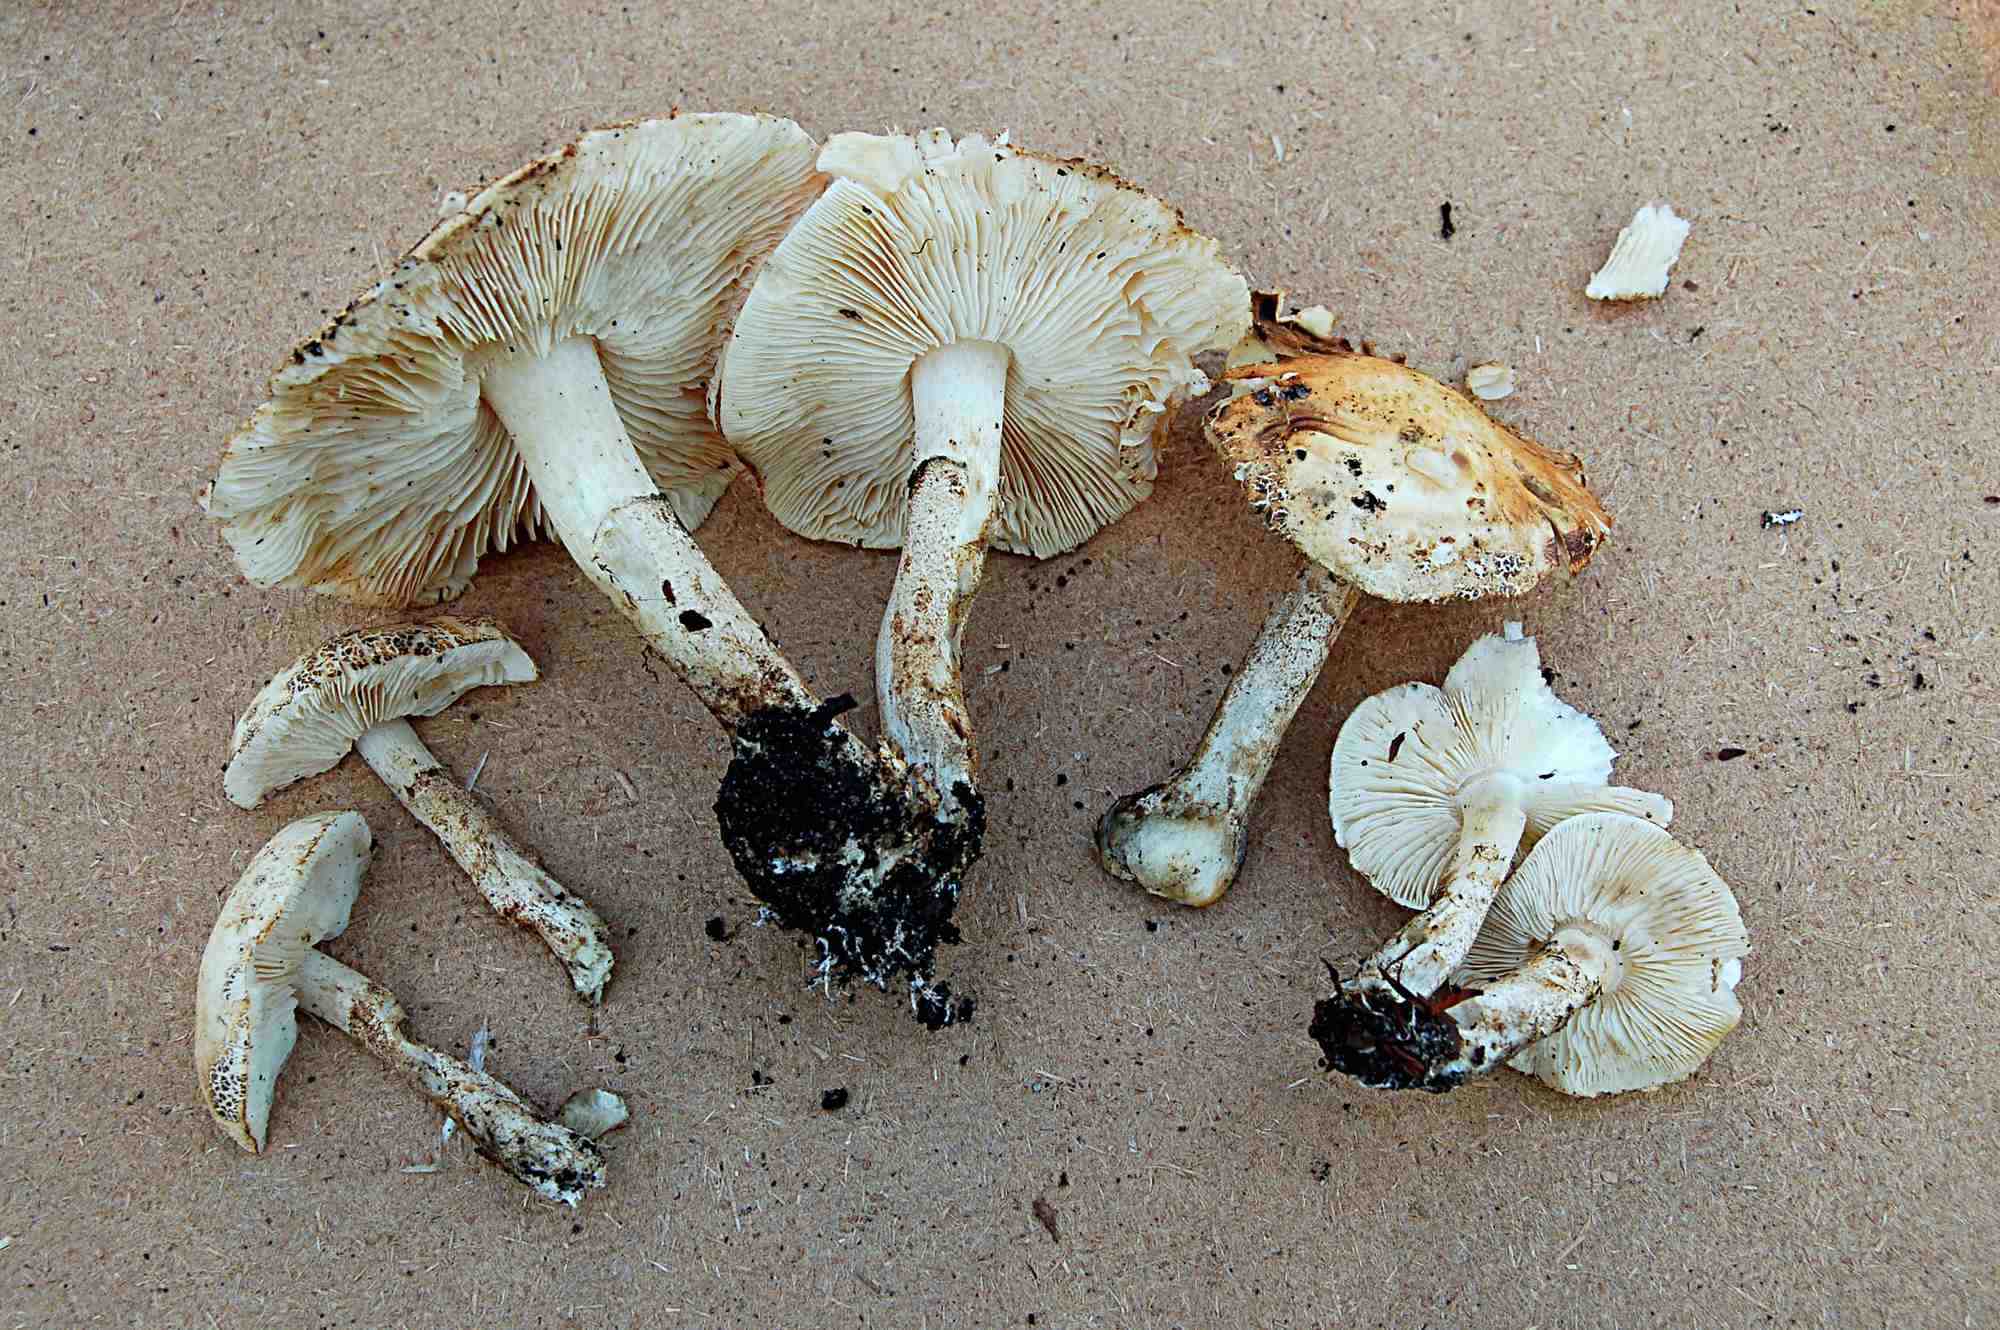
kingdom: Fungi
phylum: Basidiomycota
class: Agaricomycetes
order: Agaricales
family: Agaricaceae
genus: Chamaemyces
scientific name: Chamaemyces fracidus
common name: dråbehat
